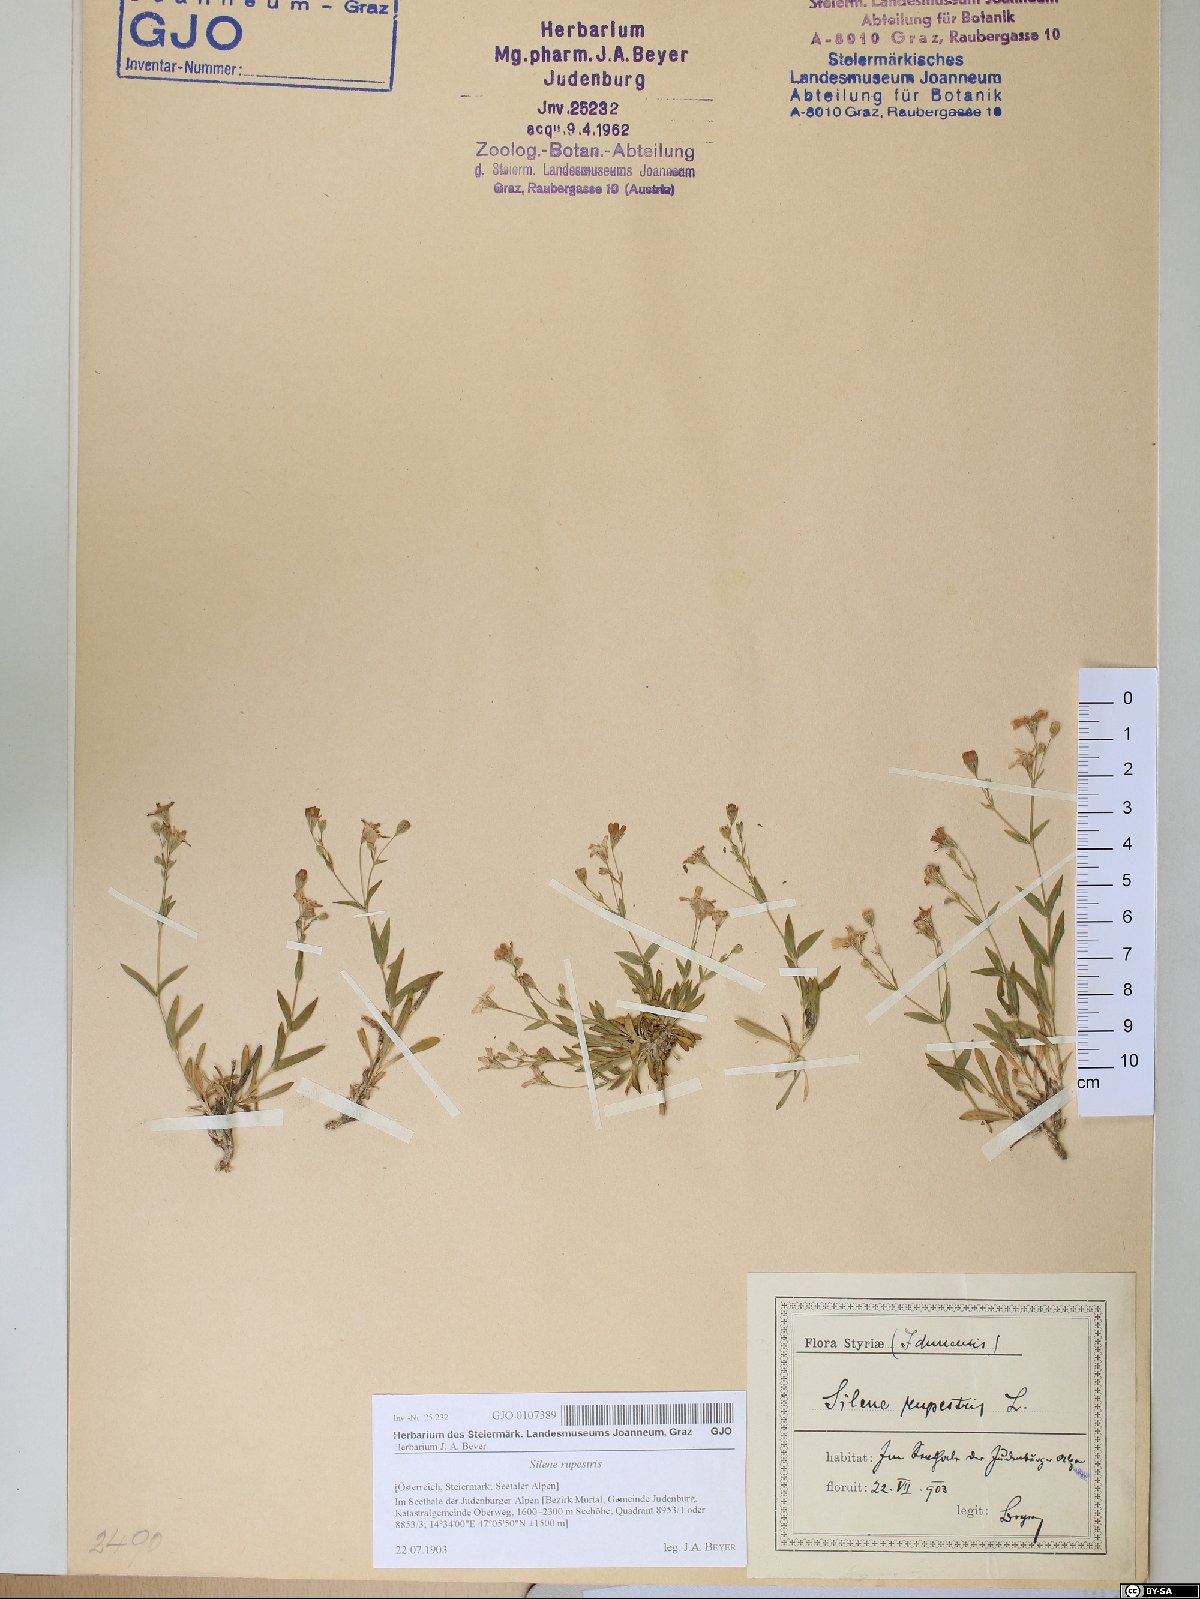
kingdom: Plantae
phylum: Tracheophyta
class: Magnoliopsida
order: Caryophyllales
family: Caryophyllaceae
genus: Atocion
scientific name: Atocion rupestre
